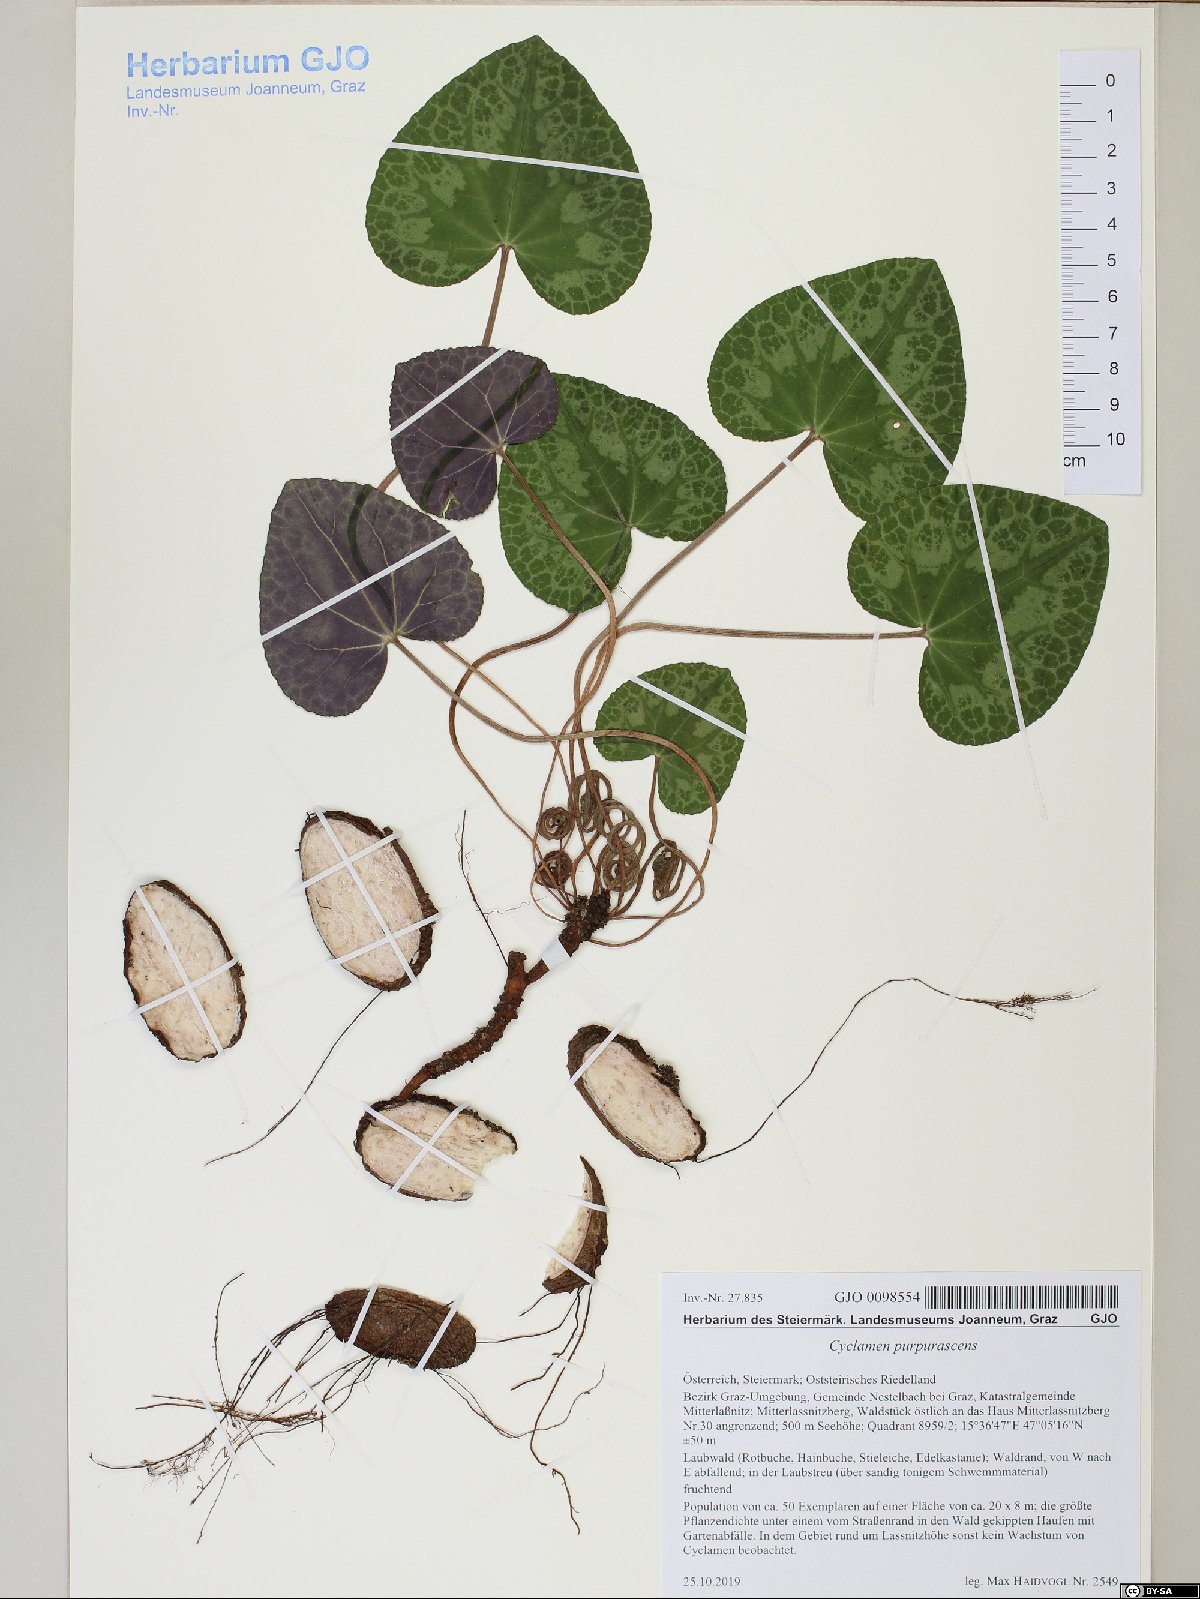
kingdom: Plantae
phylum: Tracheophyta
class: Magnoliopsida
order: Ericales
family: Primulaceae
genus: Cyclamen
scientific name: Cyclamen purpurascens
